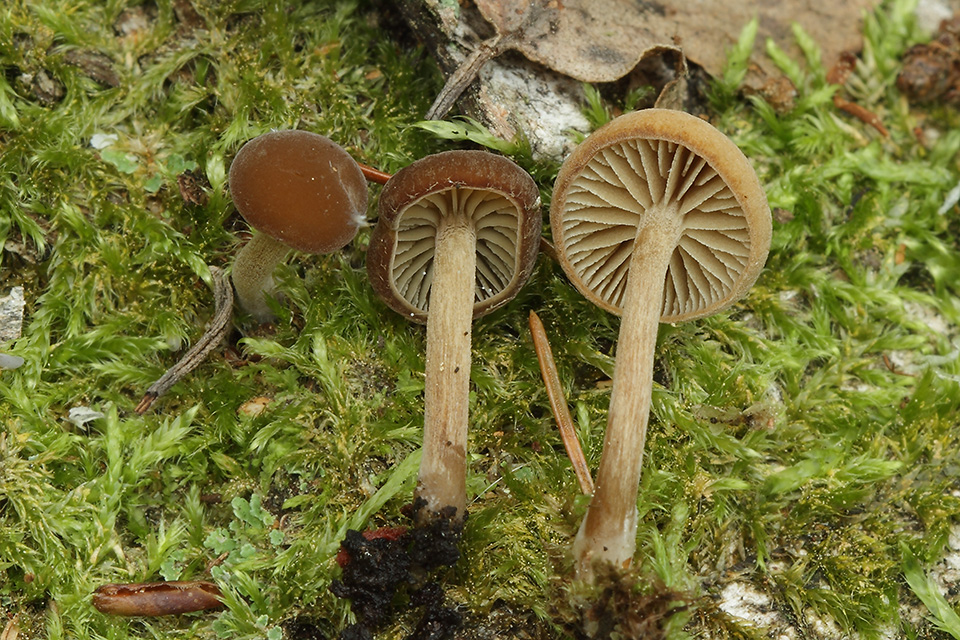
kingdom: Fungi
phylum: Basidiomycota
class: Agaricomycetes
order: Agaricales
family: Crepidotaceae
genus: Simocybe
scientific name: Simocybe sumptuosa
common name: stor skyggehat
